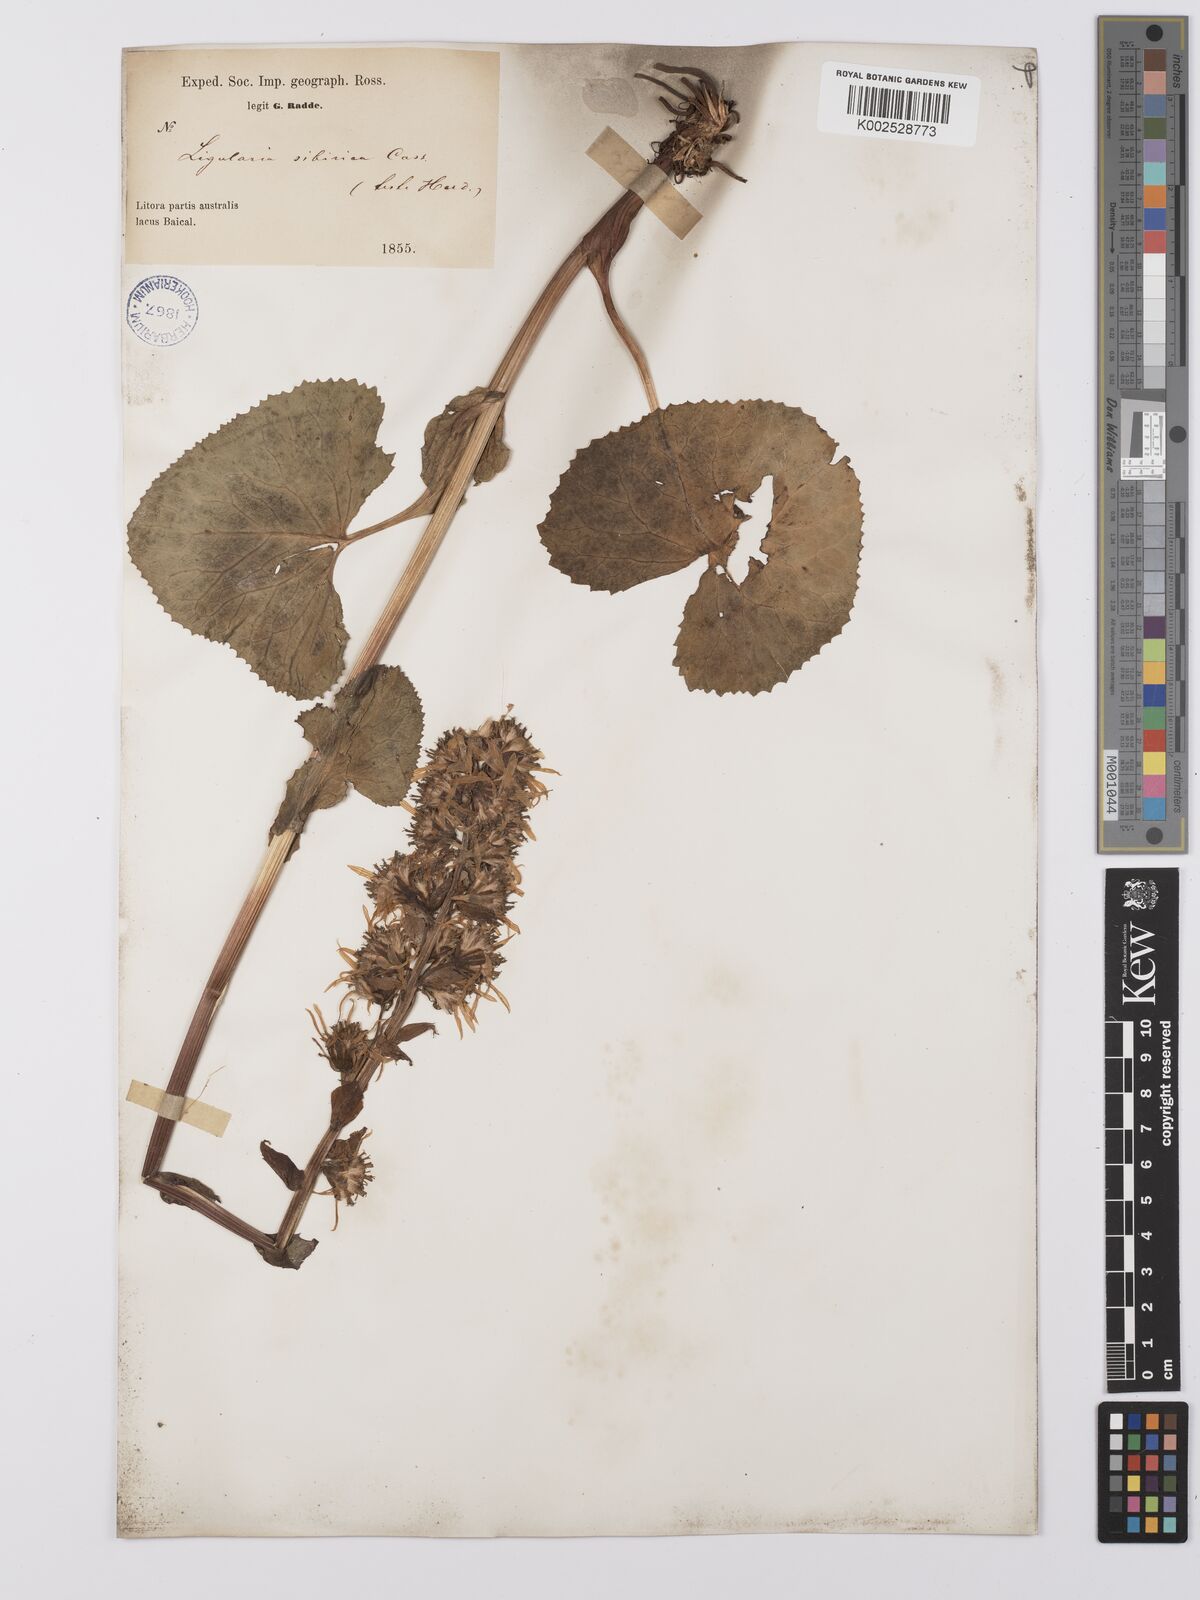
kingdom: Plantae
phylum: Tracheophyta
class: Magnoliopsida
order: Asterales
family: Asteraceae
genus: Ligularia
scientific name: Ligularia sibirica
